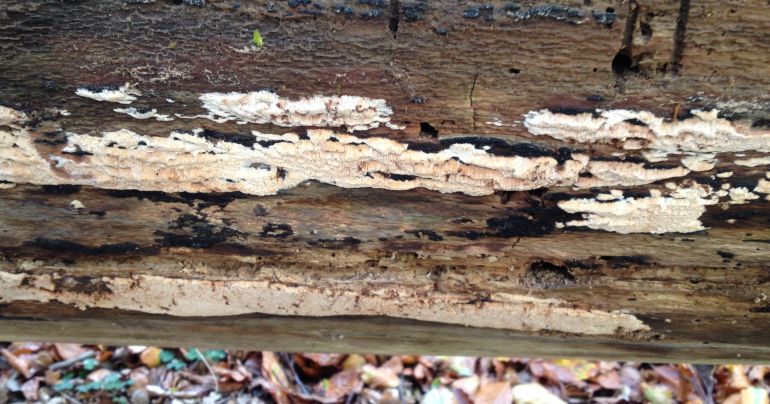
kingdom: Fungi
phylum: Basidiomycota
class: Agaricomycetes
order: Polyporales
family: Meruliaceae
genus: Mycoacia
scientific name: Mycoacia gilvescens
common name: rosa pastelporesvamp
